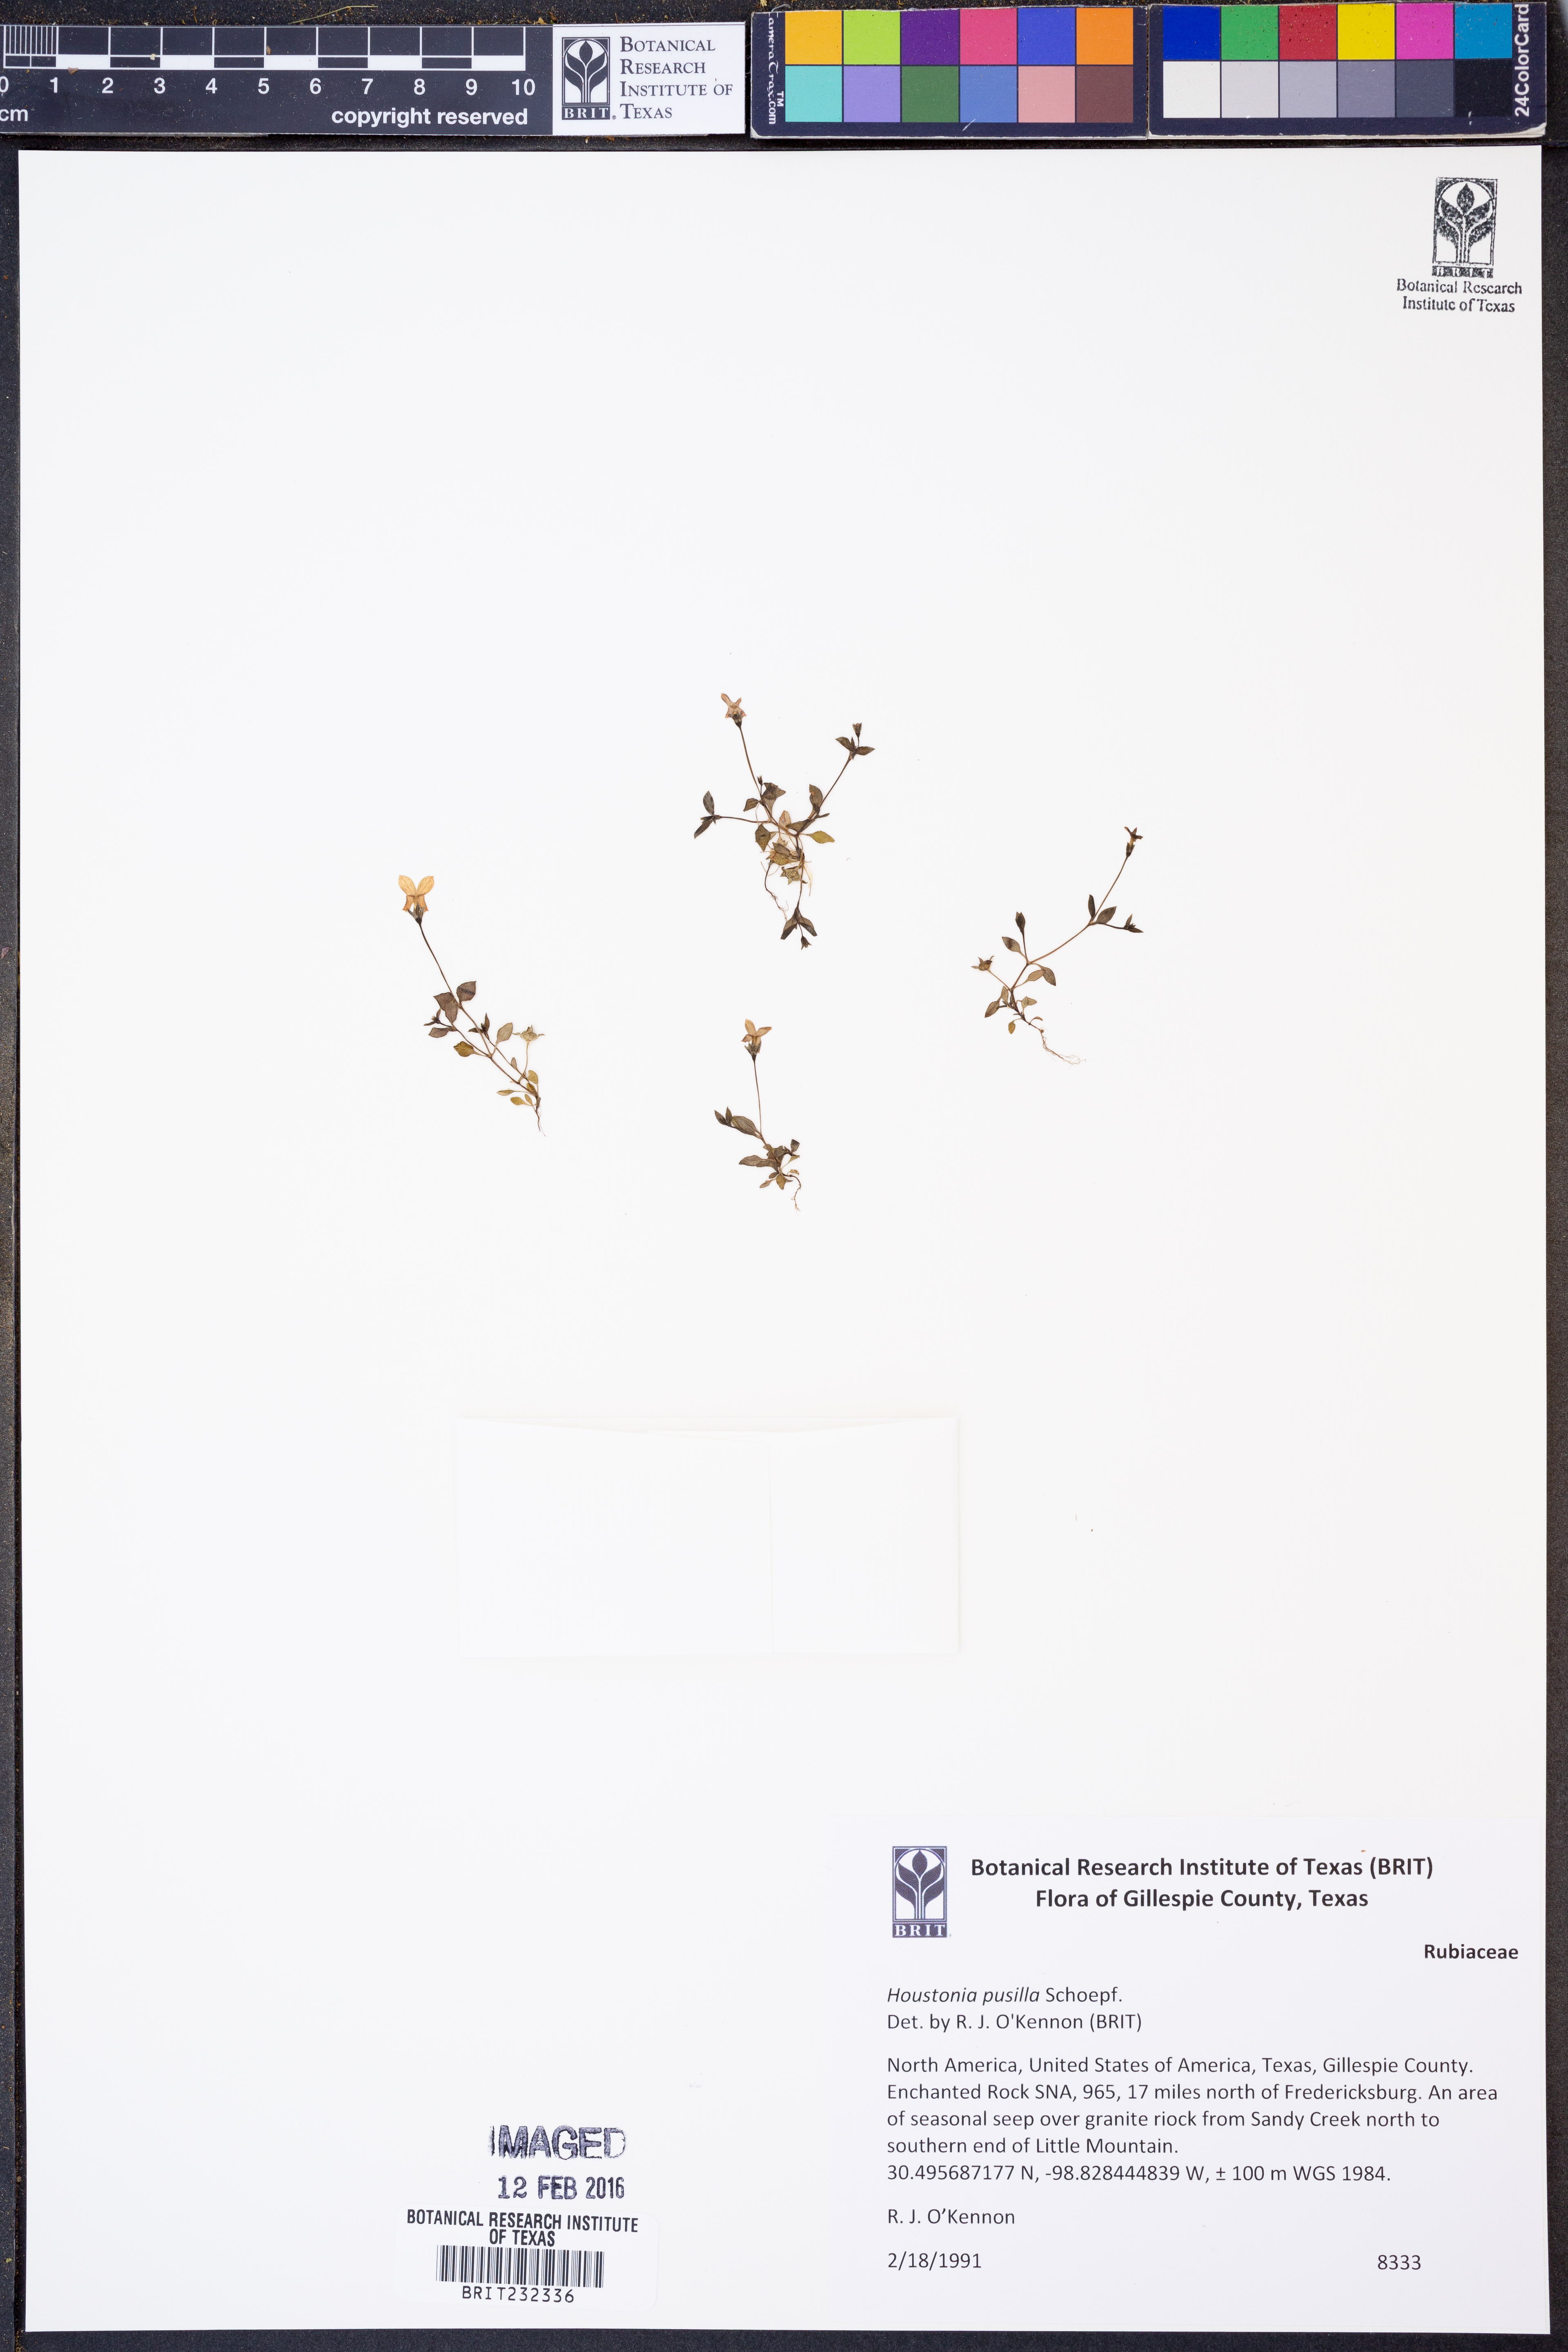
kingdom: Plantae
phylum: Tracheophyta
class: Magnoliopsida
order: Gentianales
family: Rubiaceae
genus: Houstonia
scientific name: Houstonia pusilla
